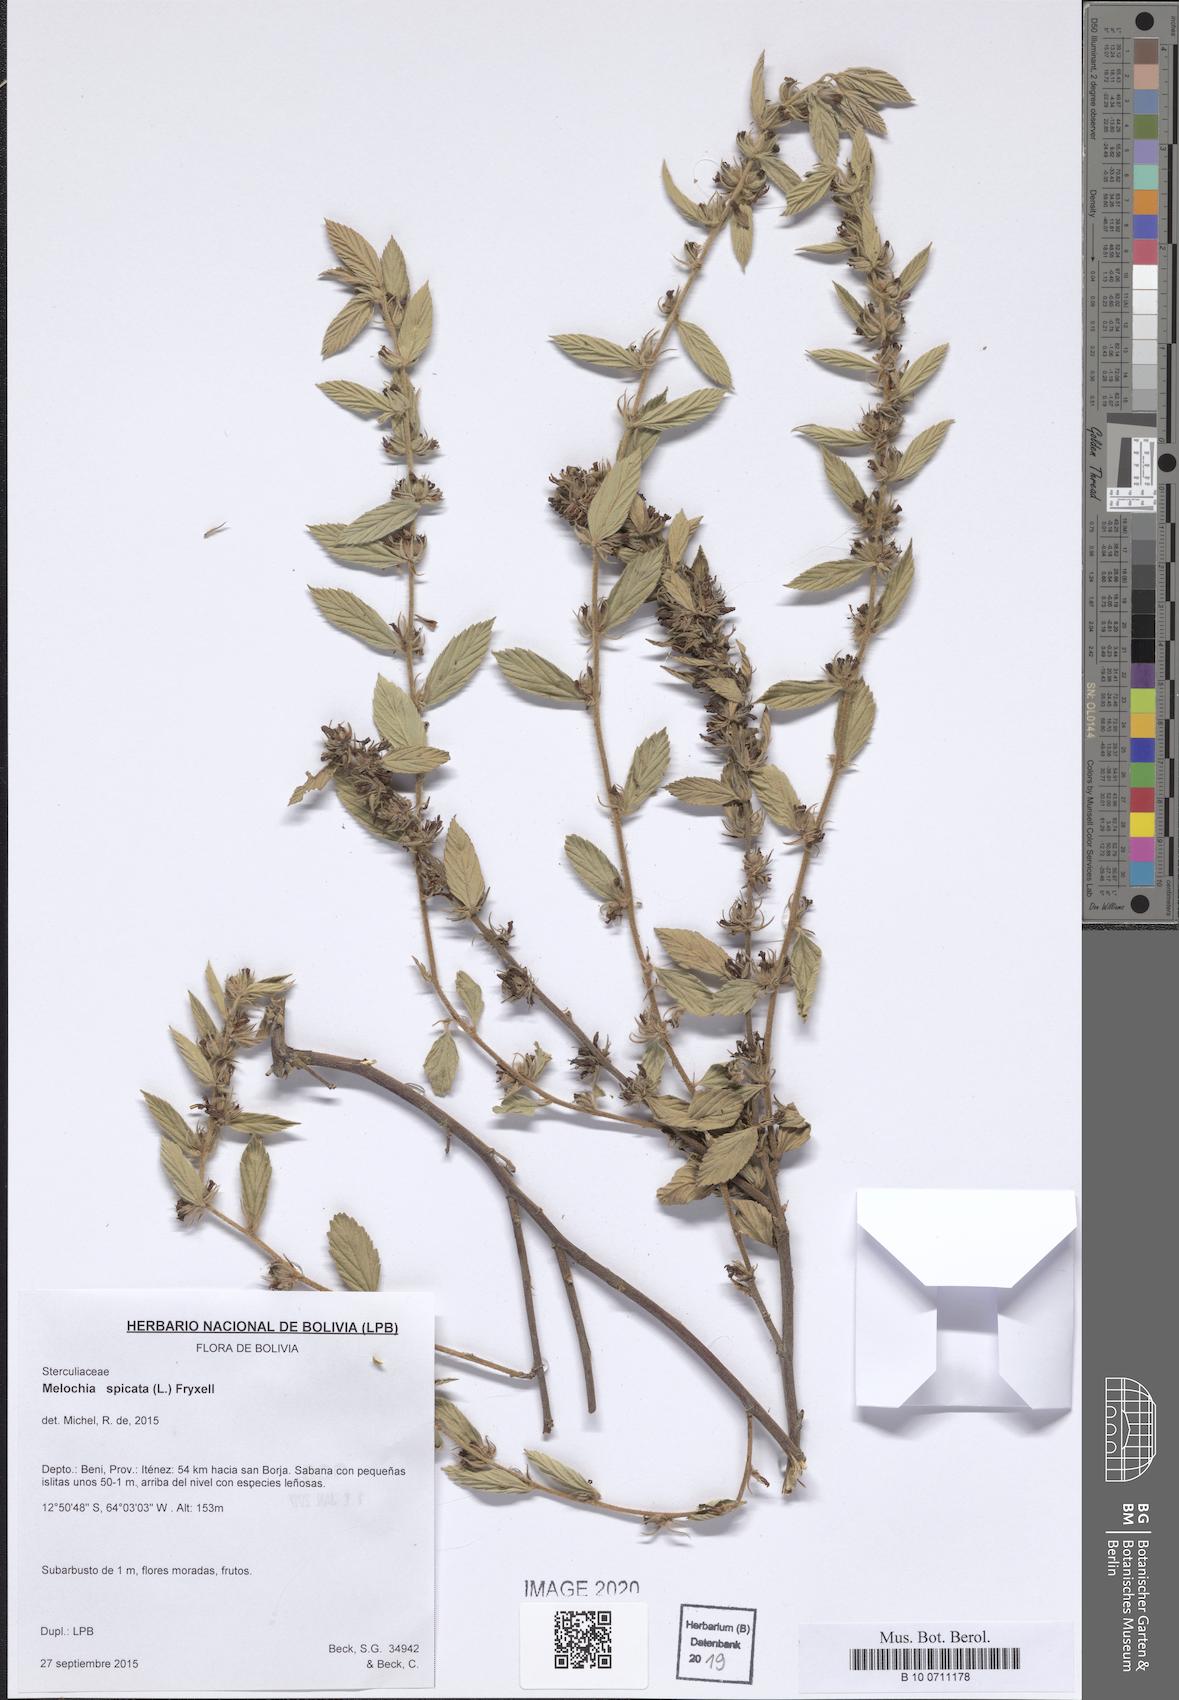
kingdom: Plantae
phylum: Tracheophyta
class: Magnoliopsida
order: Malvales
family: Malvaceae
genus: Melochia
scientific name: Melochia spicata
